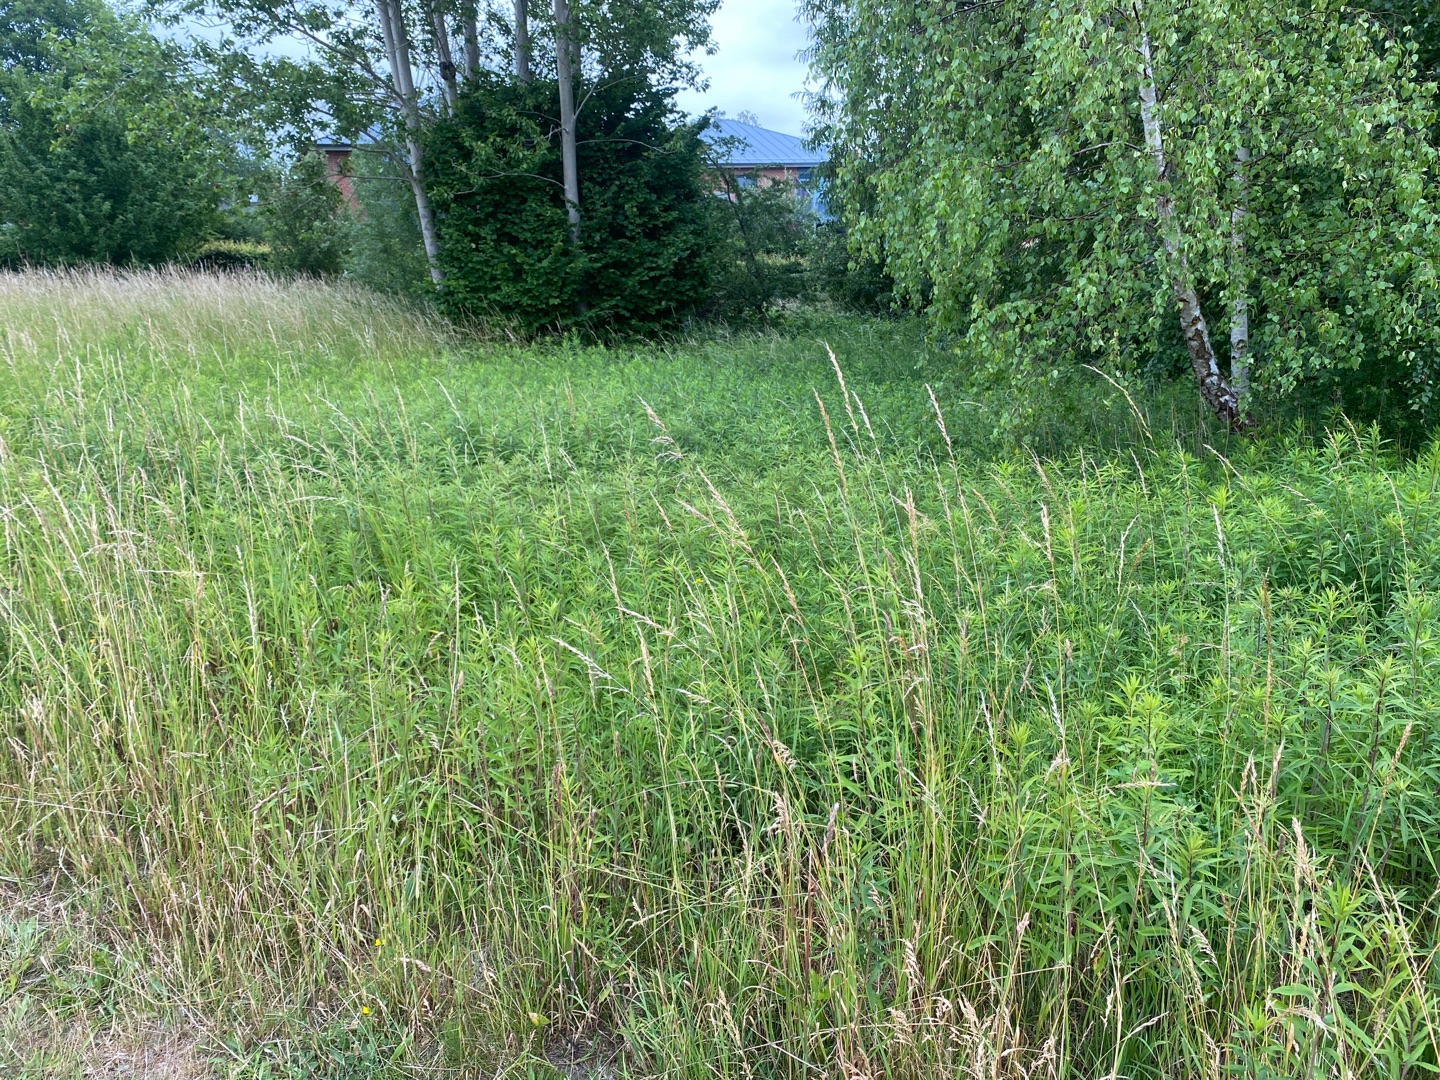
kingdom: Plantae
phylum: Tracheophyta
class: Magnoliopsida
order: Asterales
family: Asteraceae
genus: Solidago
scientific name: Solidago gigantea
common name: Sildig gyldenris
